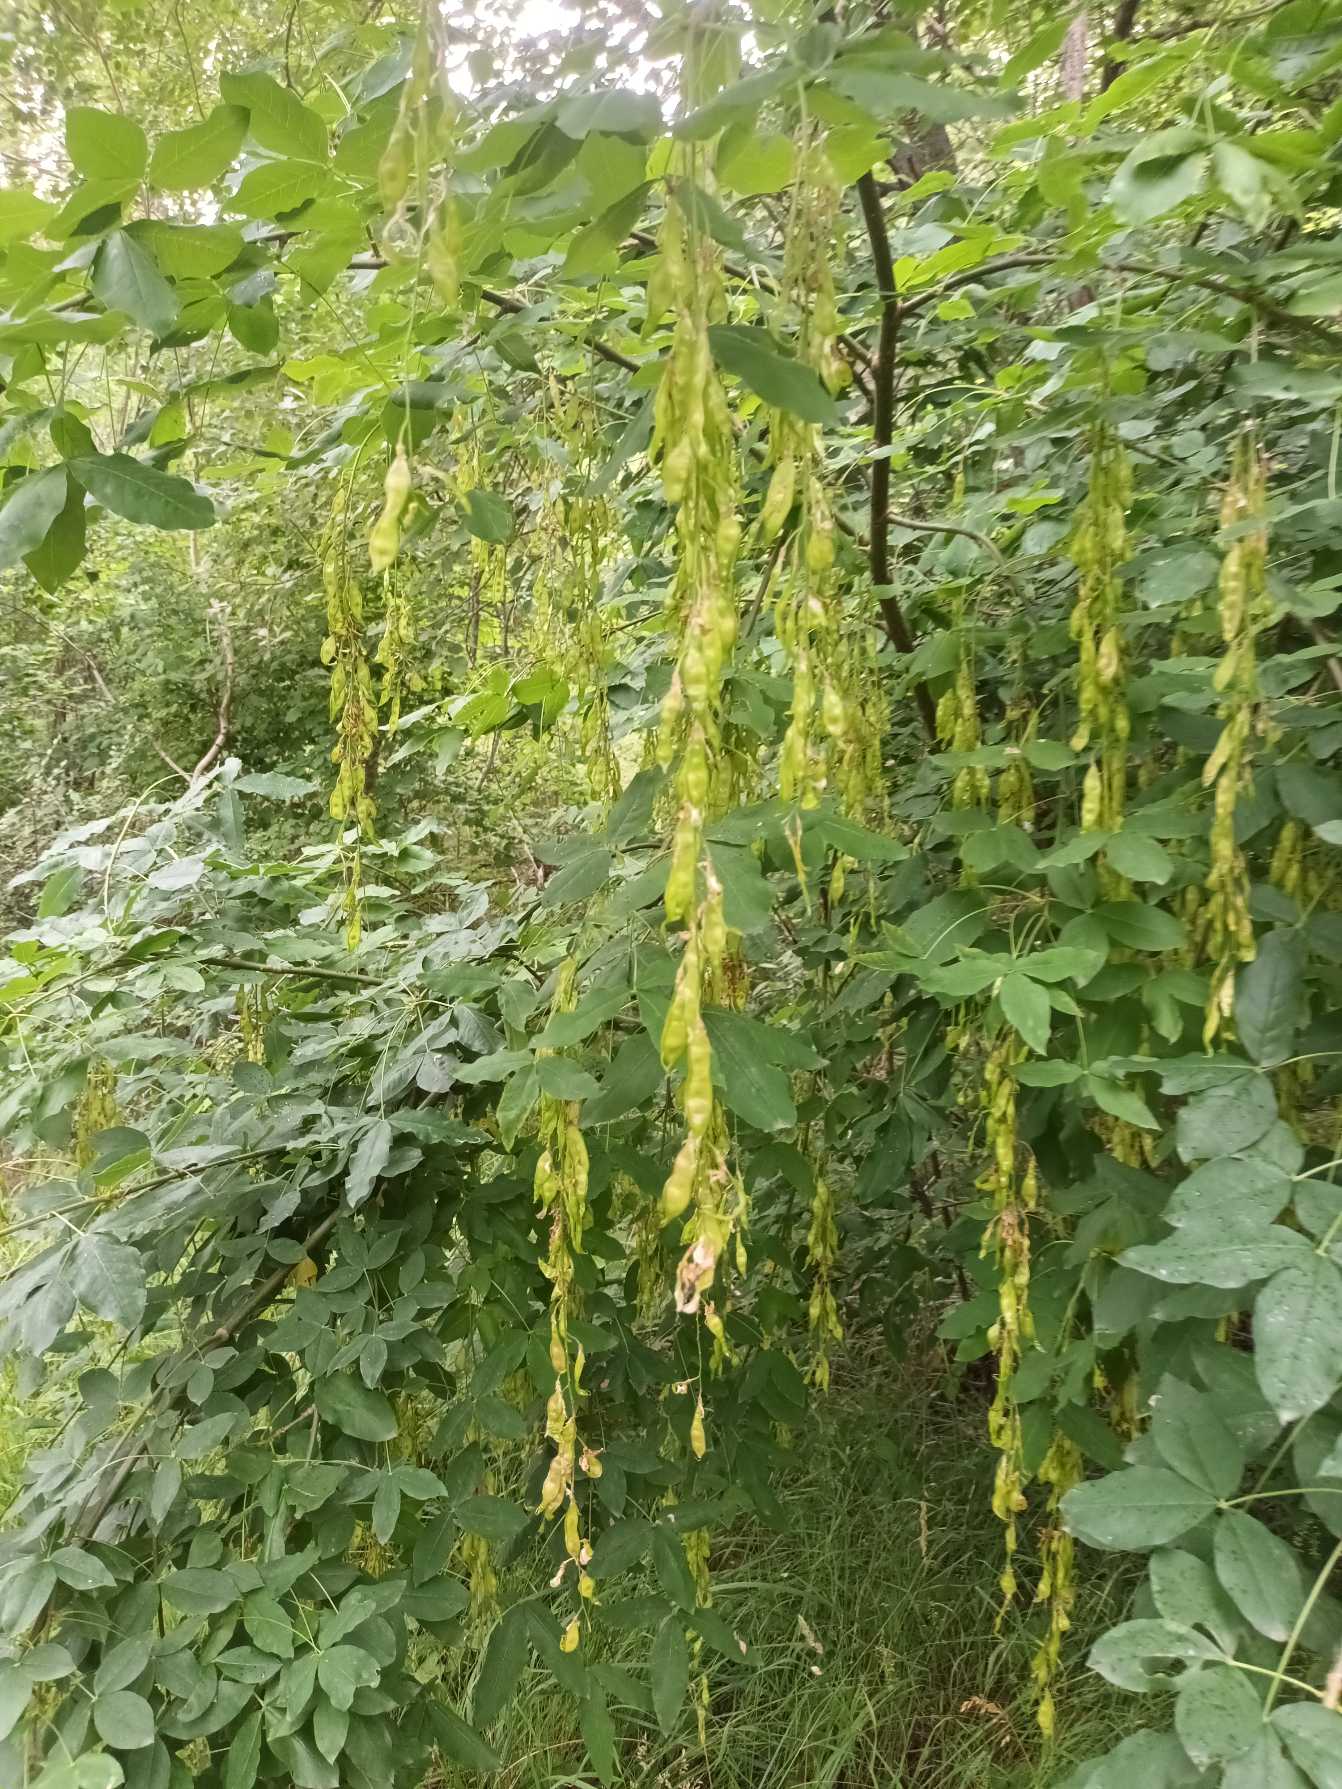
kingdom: Plantae
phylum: Tracheophyta
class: Magnoliopsida
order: Fabales
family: Fabaceae
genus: Laburnum
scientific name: Laburnum alpinum
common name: Alpe-guldregn
